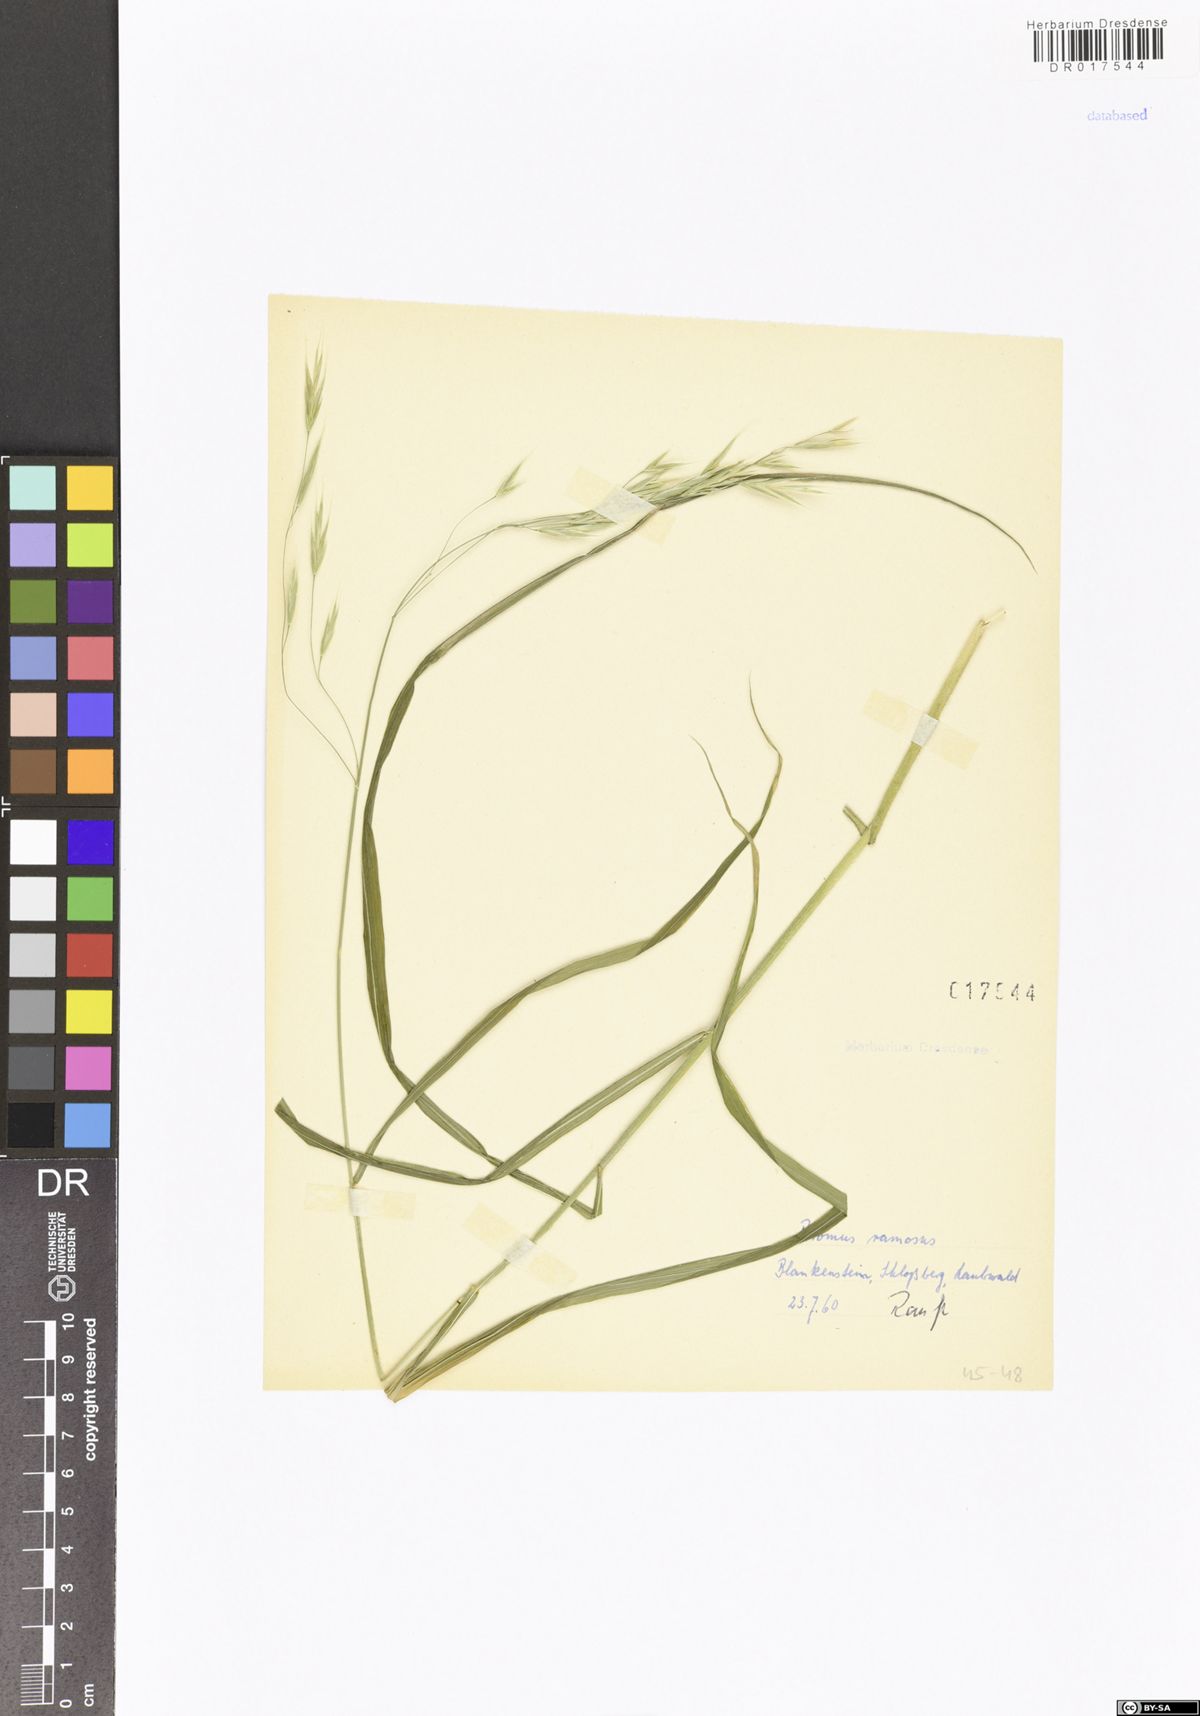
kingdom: Plantae
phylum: Tracheophyta
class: Liliopsida
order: Poales
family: Poaceae
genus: Bromus
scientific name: Bromus ramosus
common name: Hairy brome
